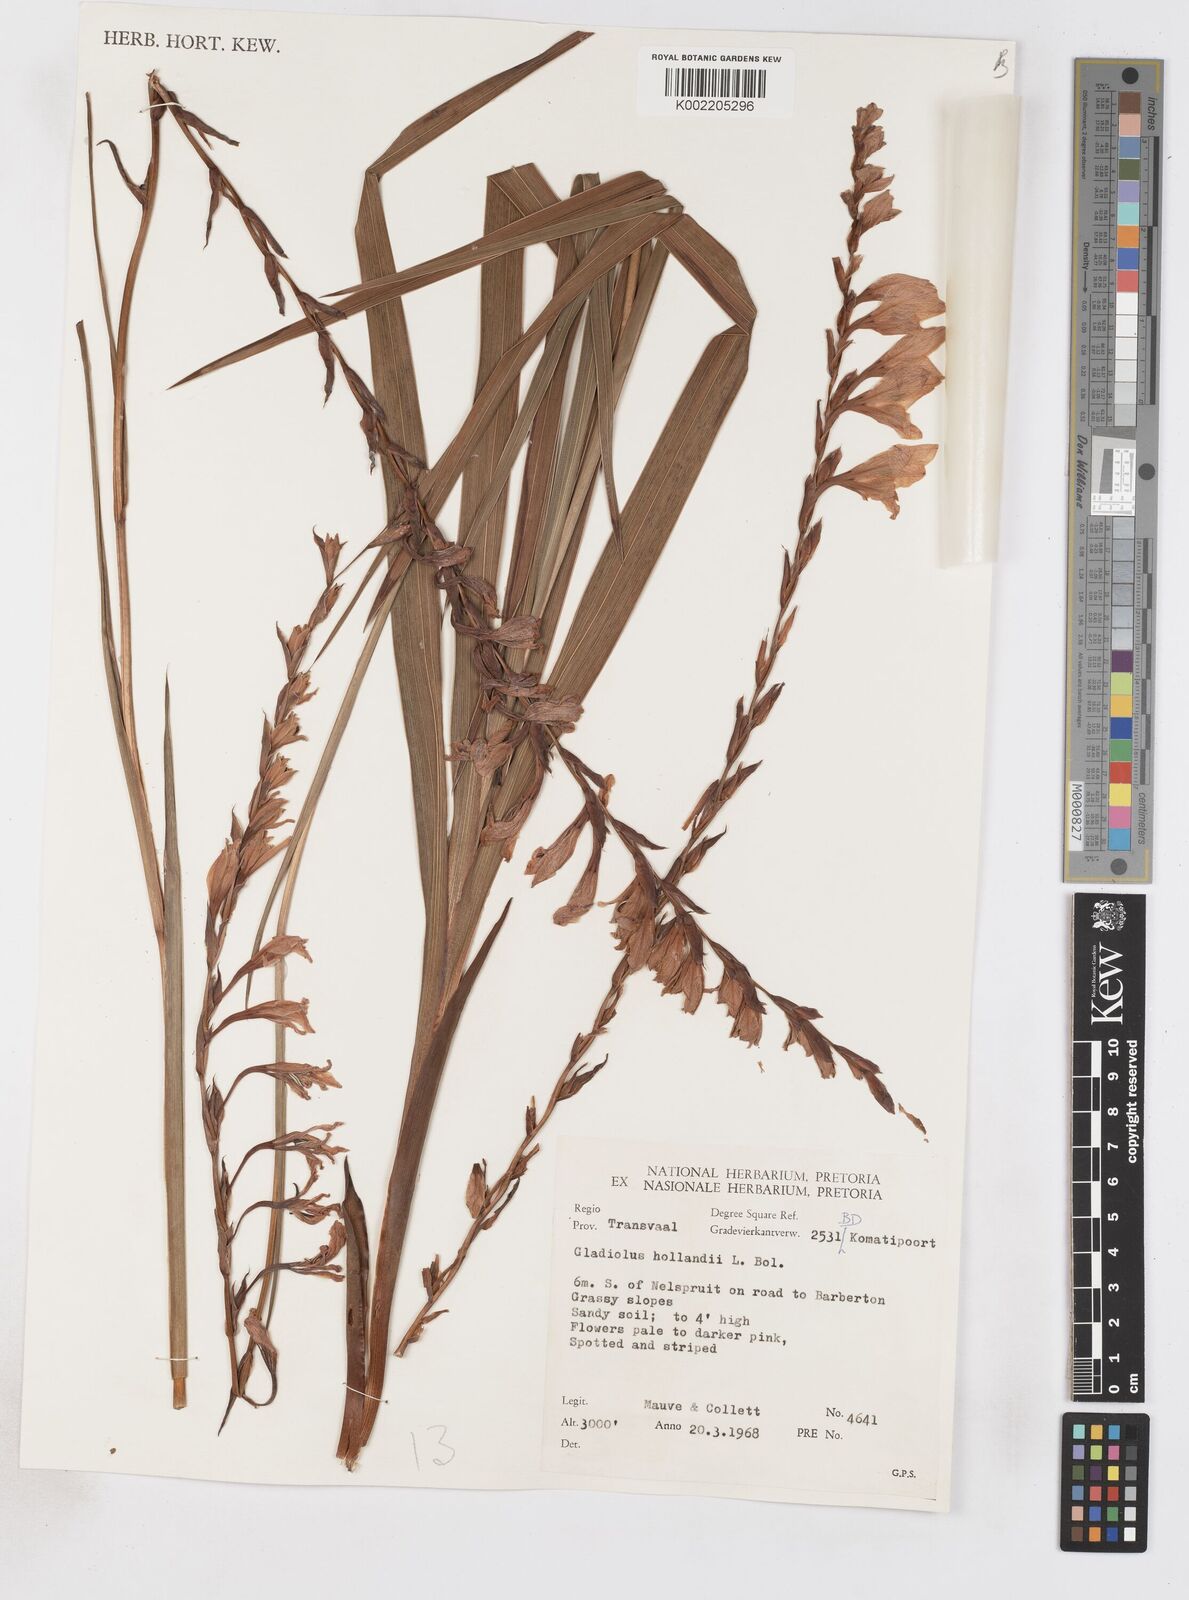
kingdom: Plantae
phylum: Tracheophyta
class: Liliopsida
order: Asparagales
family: Iridaceae
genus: Gladiolus
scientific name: Gladiolus hollandii
